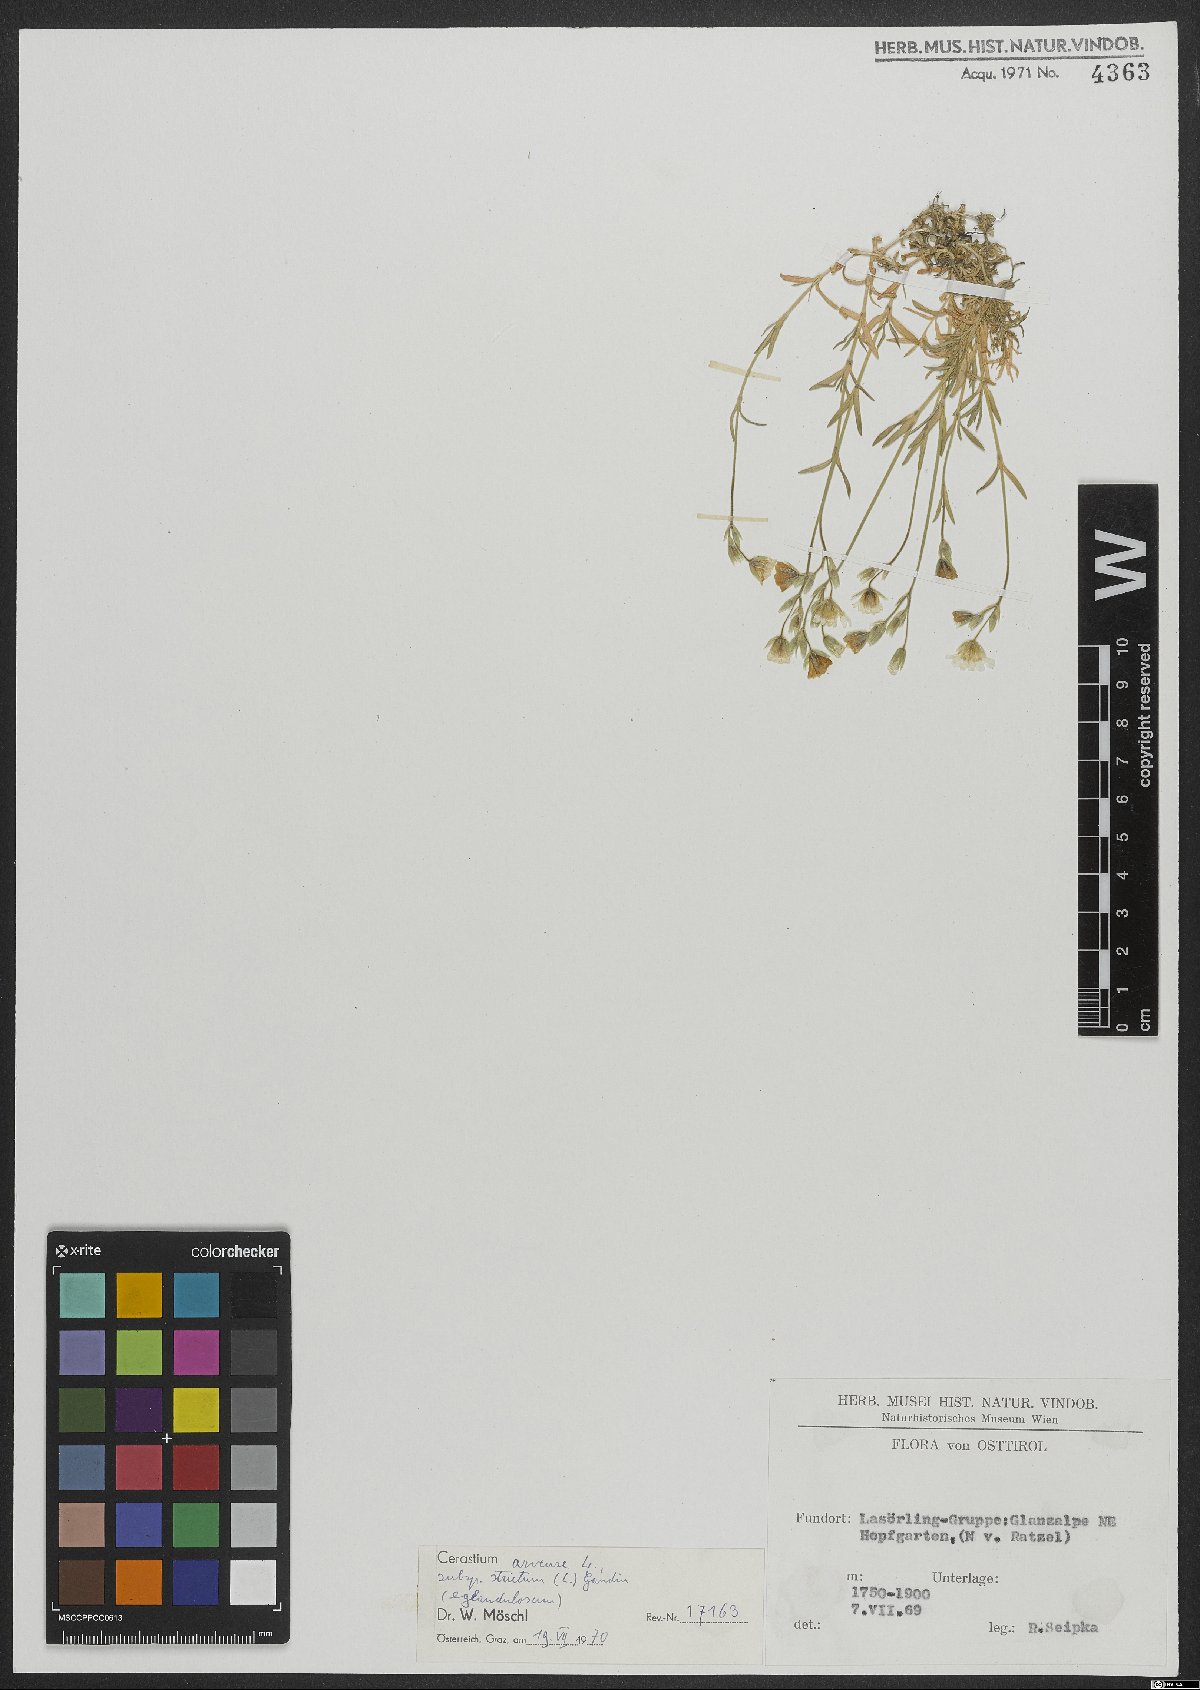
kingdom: Plantae
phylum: Tracheophyta
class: Magnoliopsida
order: Caryophyllales
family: Caryophyllaceae
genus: Cerastium
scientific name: Cerastium elongatum
